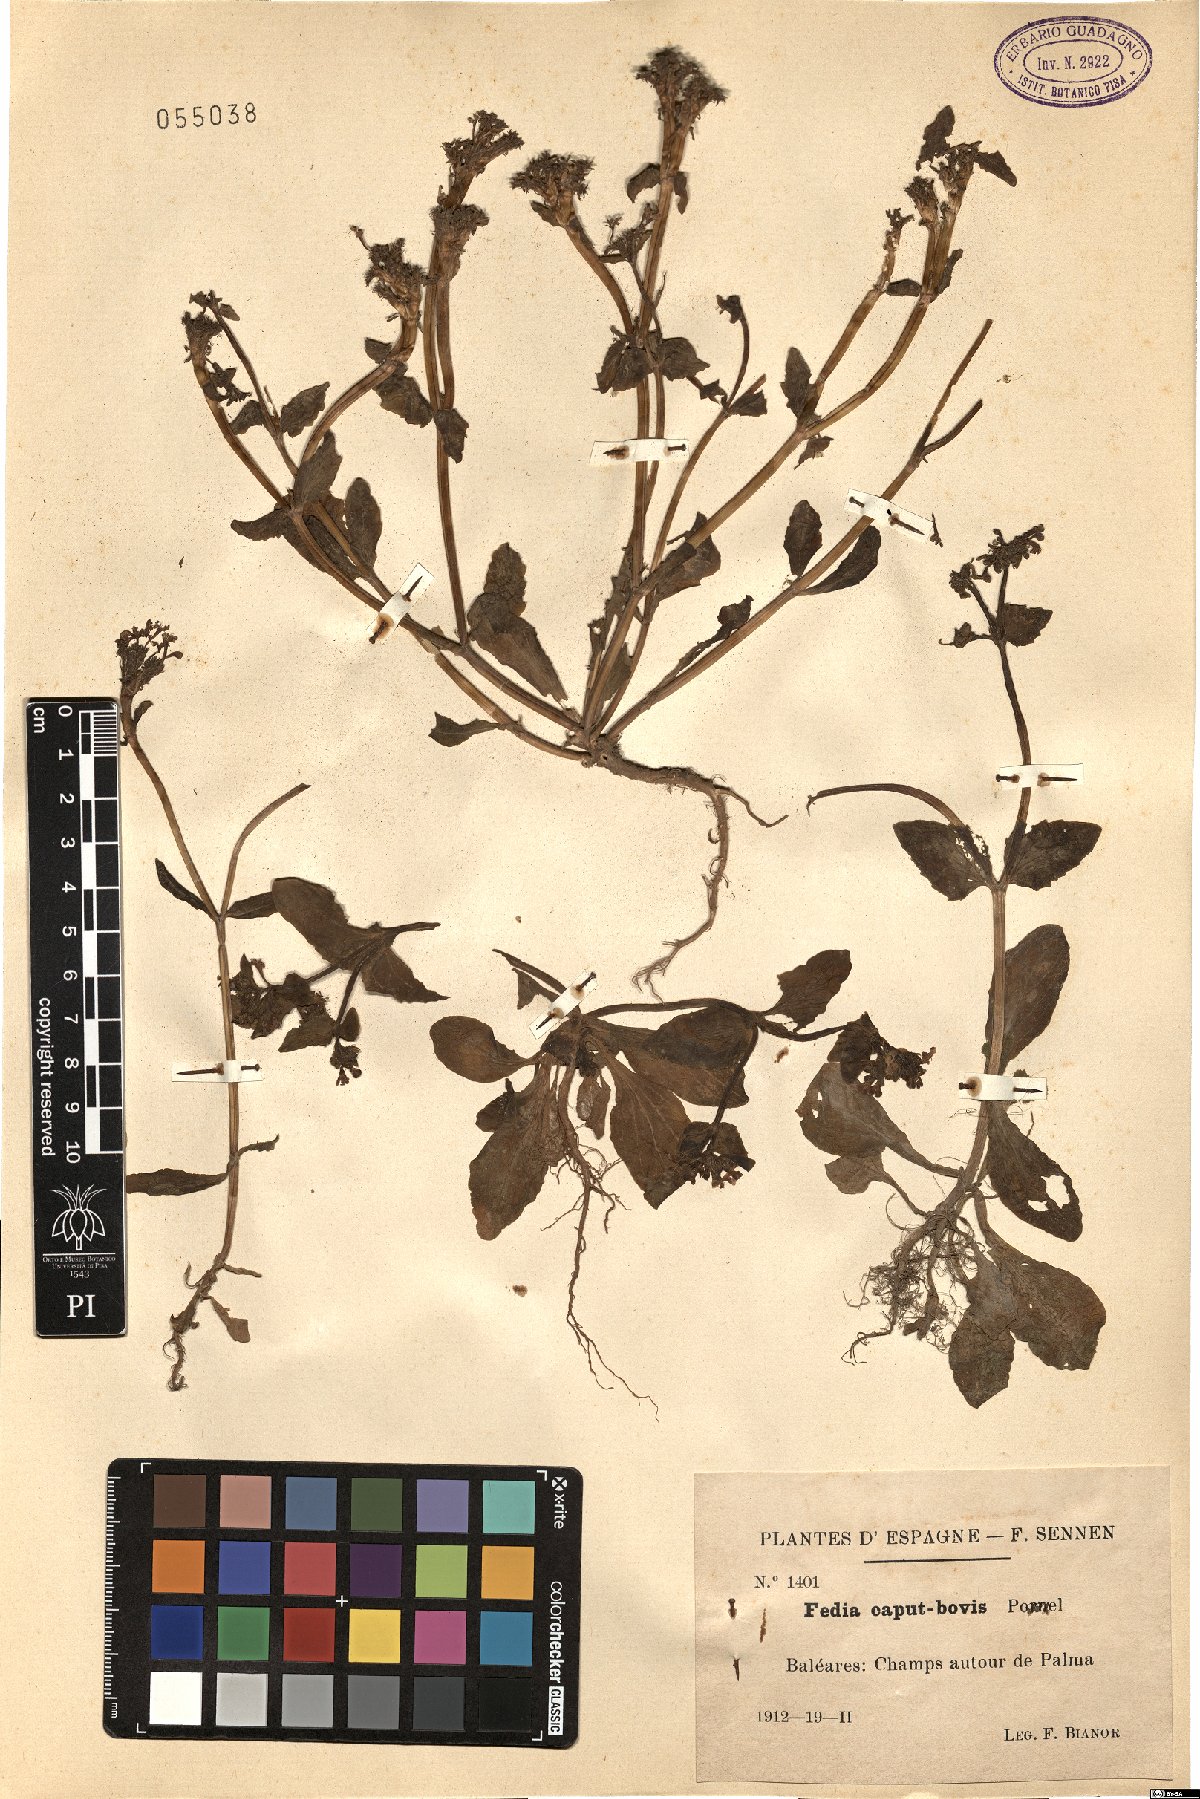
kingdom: Plantae
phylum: Tracheophyta
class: Magnoliopsida
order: Dipsacales
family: Caprifoliaceae
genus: Fedia
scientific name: Fedia graciliflora
